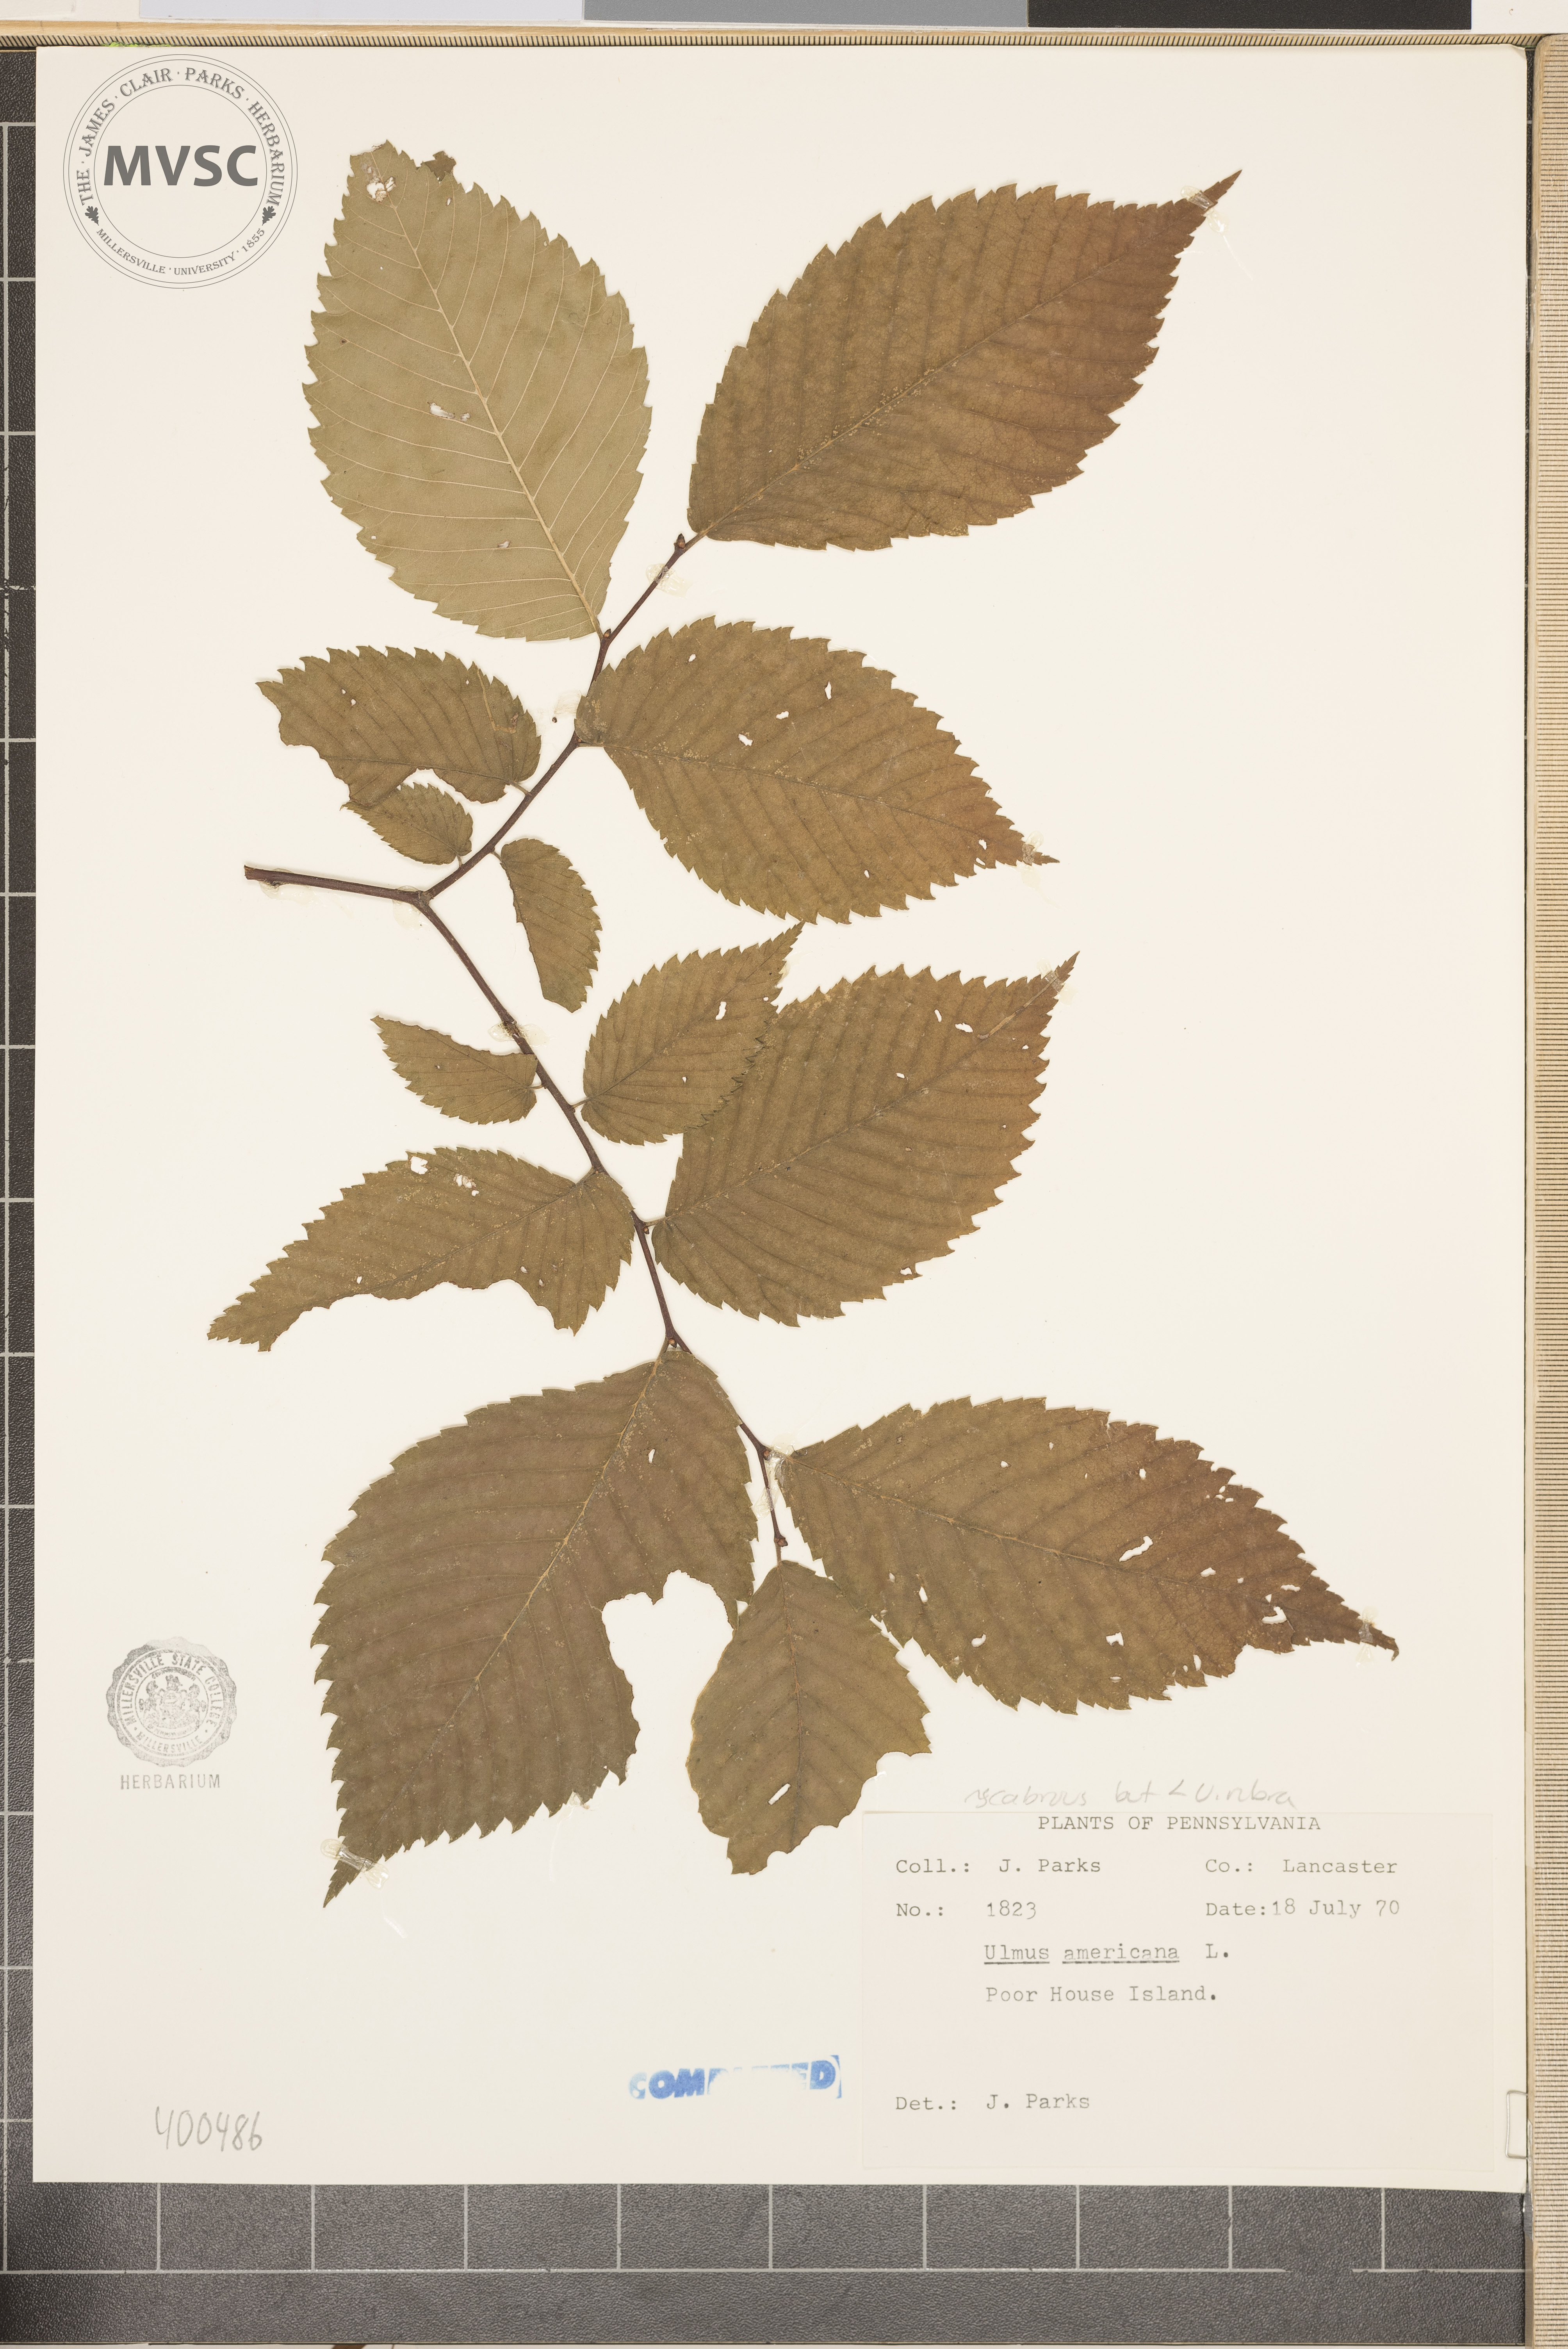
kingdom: Plantae
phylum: Tracheophyta
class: Magnoliopsida
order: Rosales
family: Ulmaceae
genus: Ulmus
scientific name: Ulmus americana
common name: American elm
